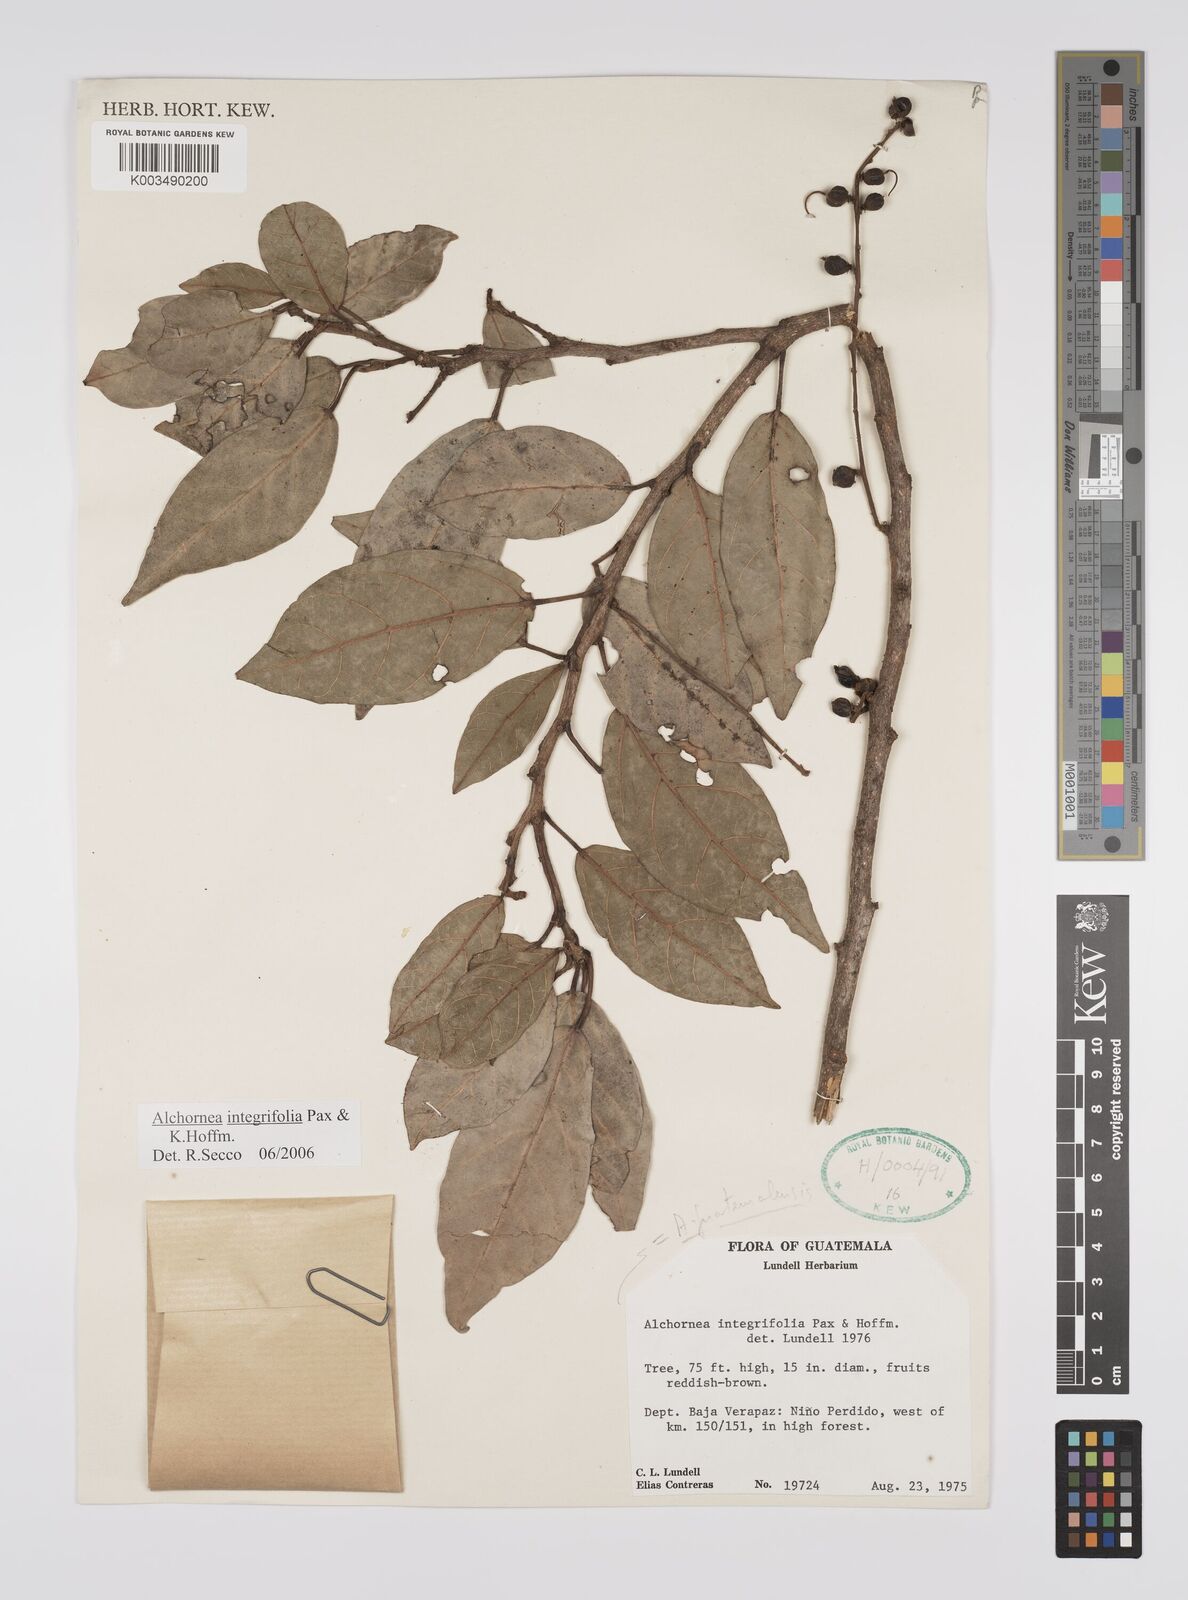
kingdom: Plantae
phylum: Tracheophyta
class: Magnoliopsida
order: Malpighiales
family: Euphorbiaceae
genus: Alchornea
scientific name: Alchornea latifolia
